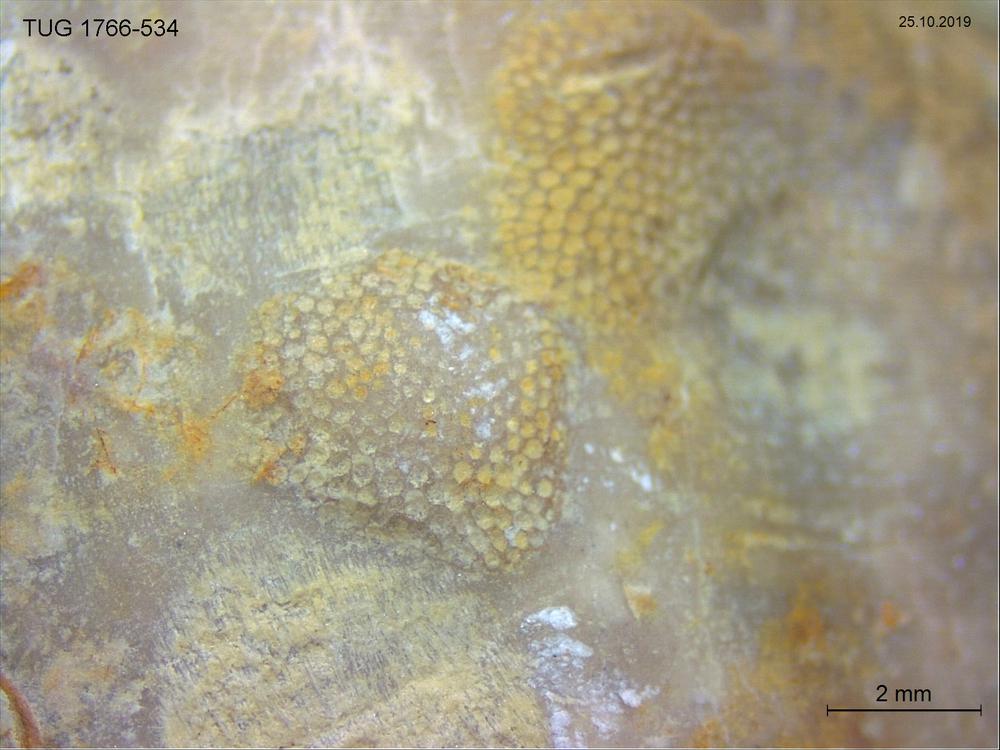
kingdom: Animalia
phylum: Bryozoa
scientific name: Bryozoa
